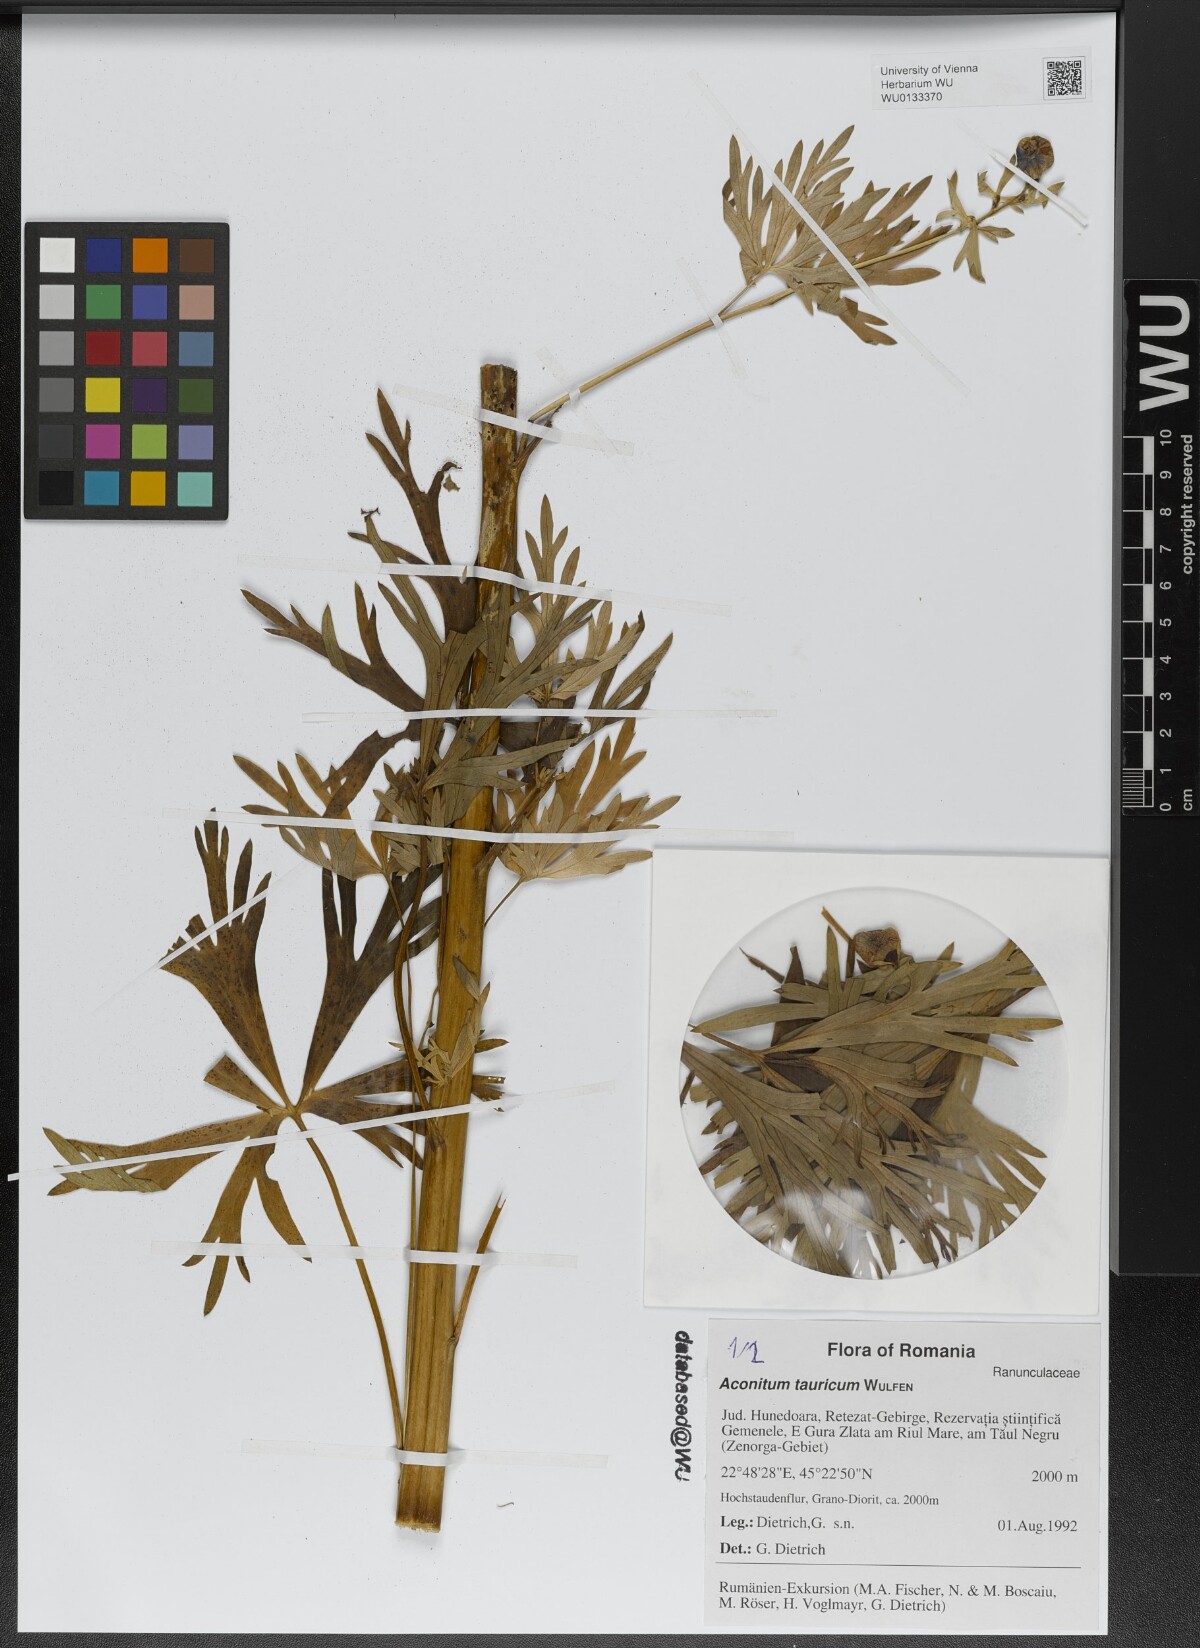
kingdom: Plantae
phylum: Tracheophyta
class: Magnoliopsida
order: Ranunculales
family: Ranunculaceae
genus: Aconitum
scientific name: Aconitum tauricum
